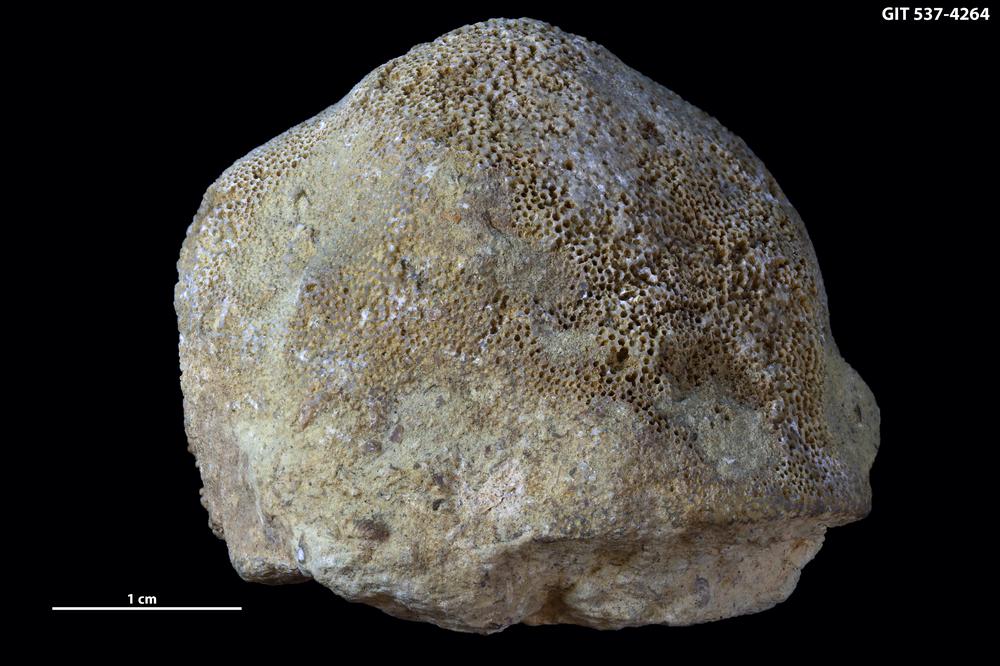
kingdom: Animalia
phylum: Bryozoa
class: Stenolaemata
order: Trepostomatida
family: Diplotrypidae
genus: Diplotrypa
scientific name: Diplotrypa petropolitana
